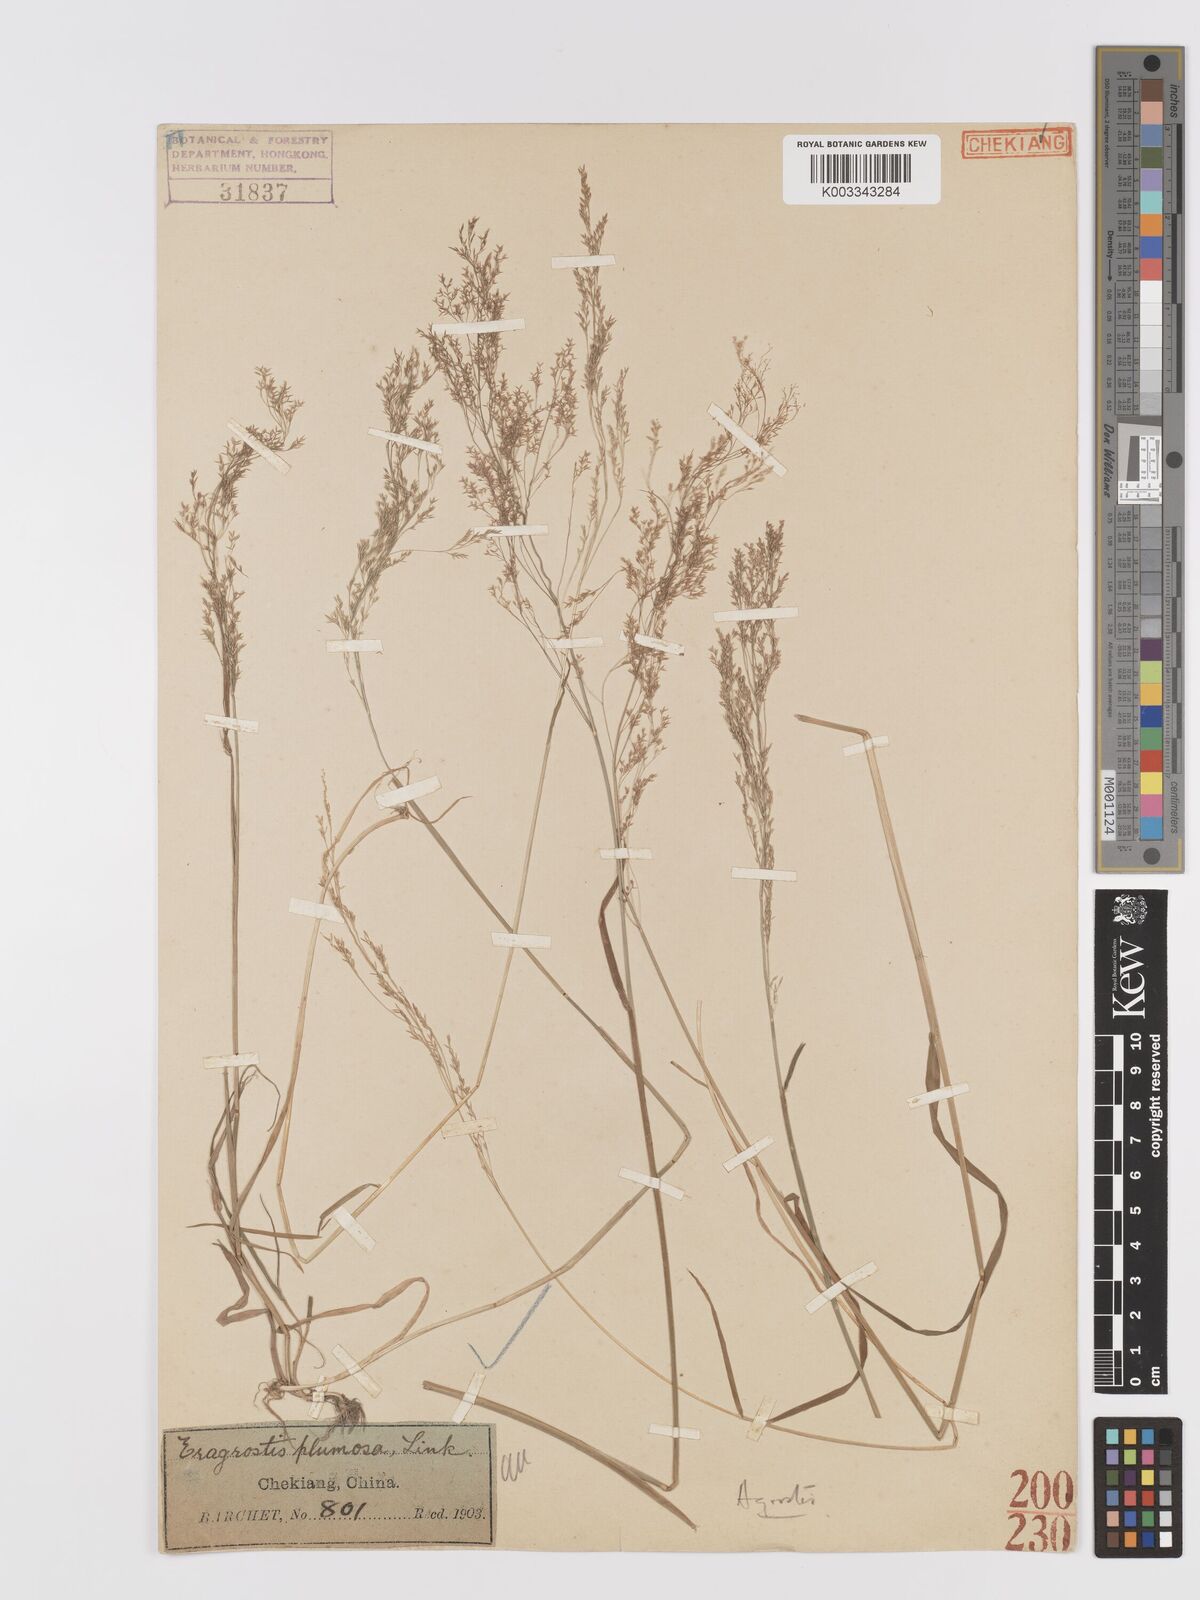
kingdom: Plantae
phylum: Tracheophyta
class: Liliopsida
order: Poales
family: Poaceae
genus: Agrostis
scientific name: Agrostis
